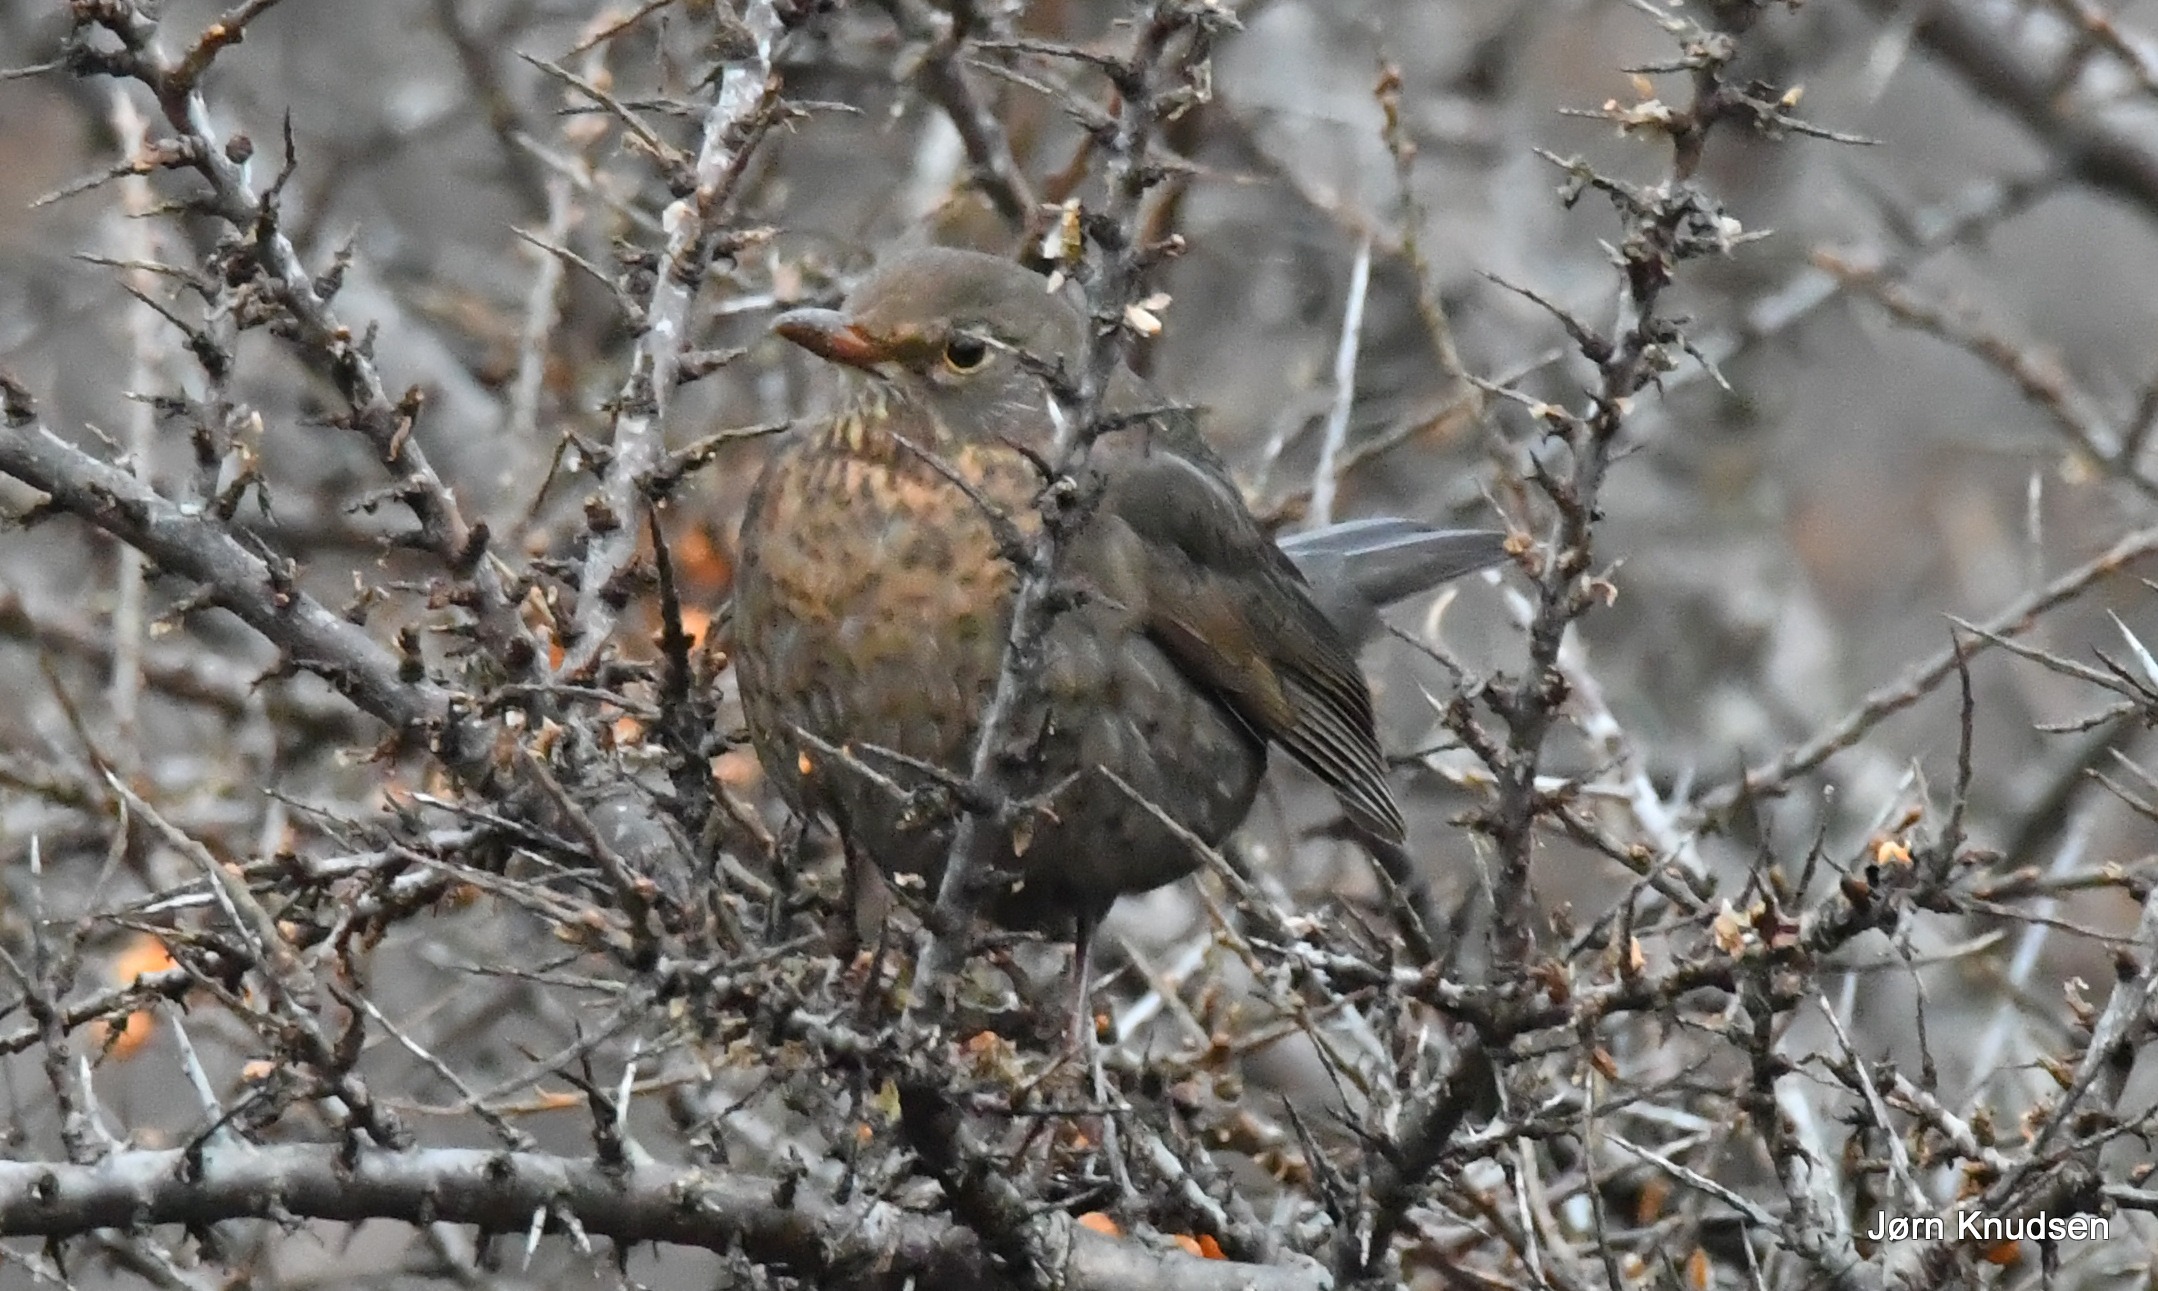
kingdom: Animalia
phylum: Chordata
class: Aves
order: Passeriformes
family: Turdidae
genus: Turdus
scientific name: Turdus merula
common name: Solsort
